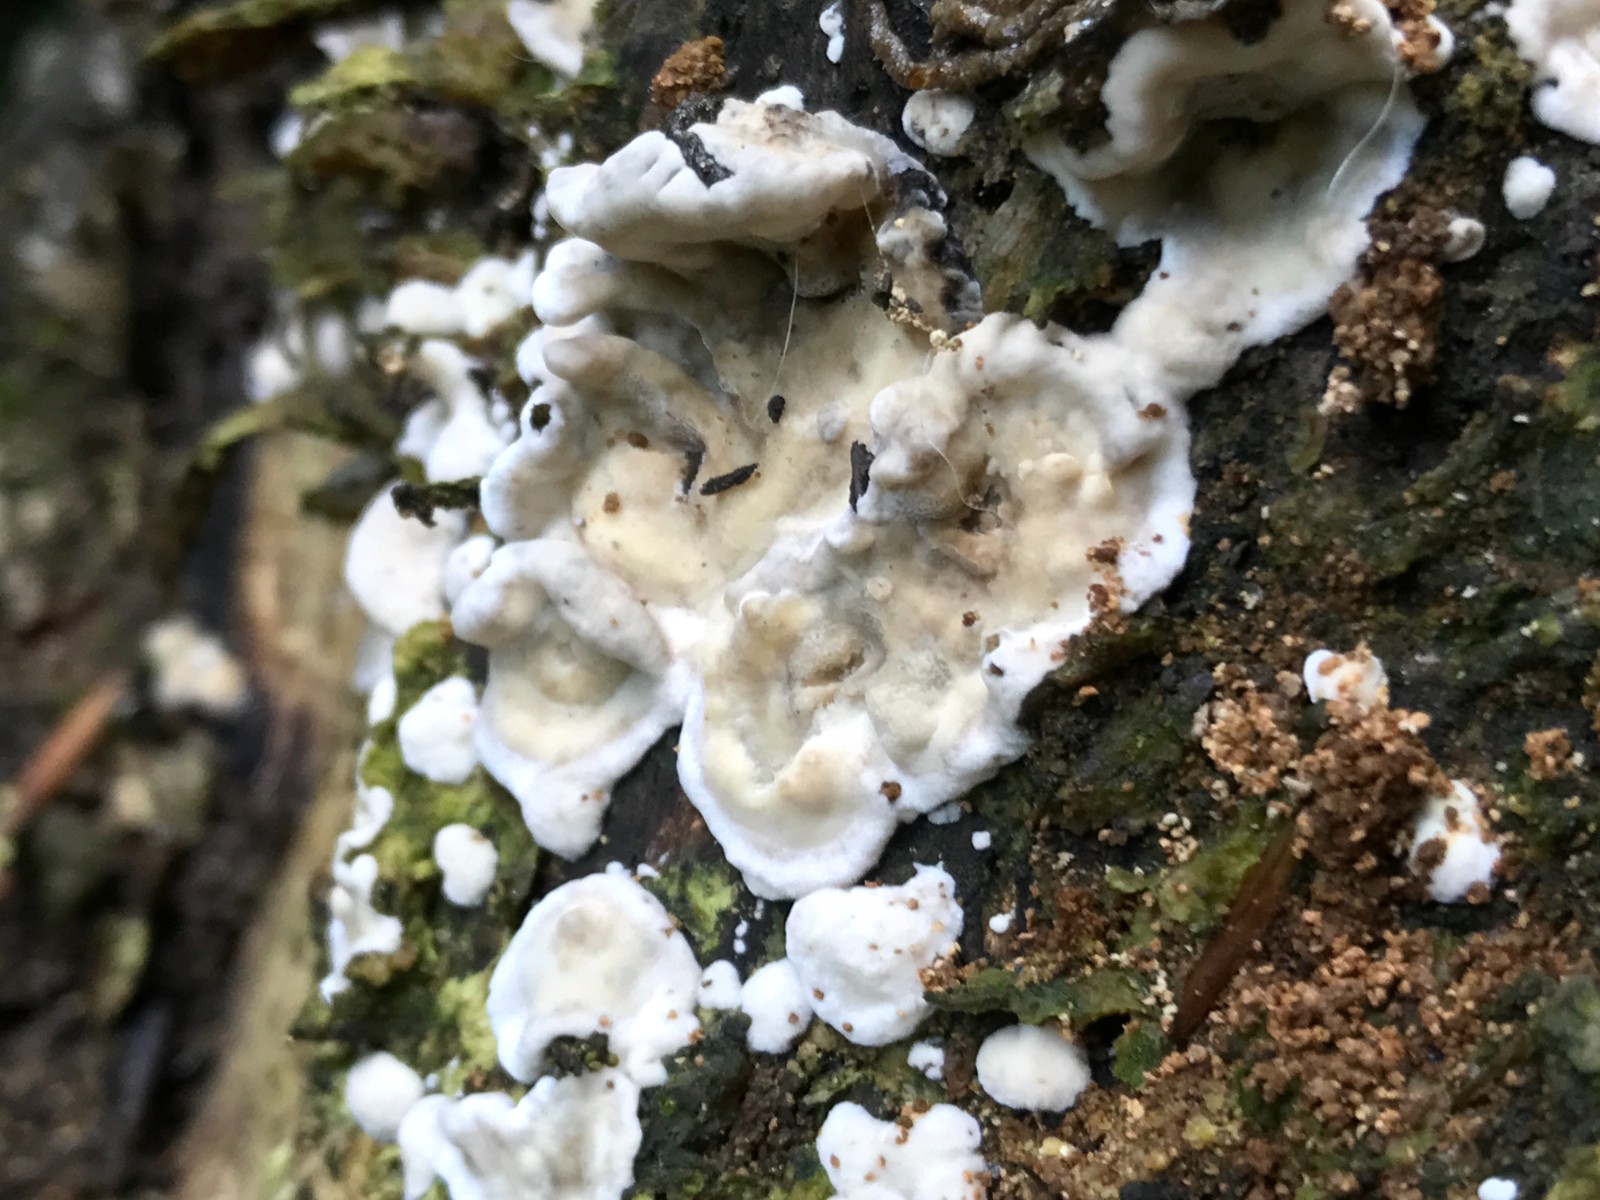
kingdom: Fungi
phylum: Basidiomycota
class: Agaricomycetes
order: Polyporales
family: Phanerochaetaceae
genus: Bjerkandera
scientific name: Bjerkandera adusta
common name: sveden sodporesvamp
